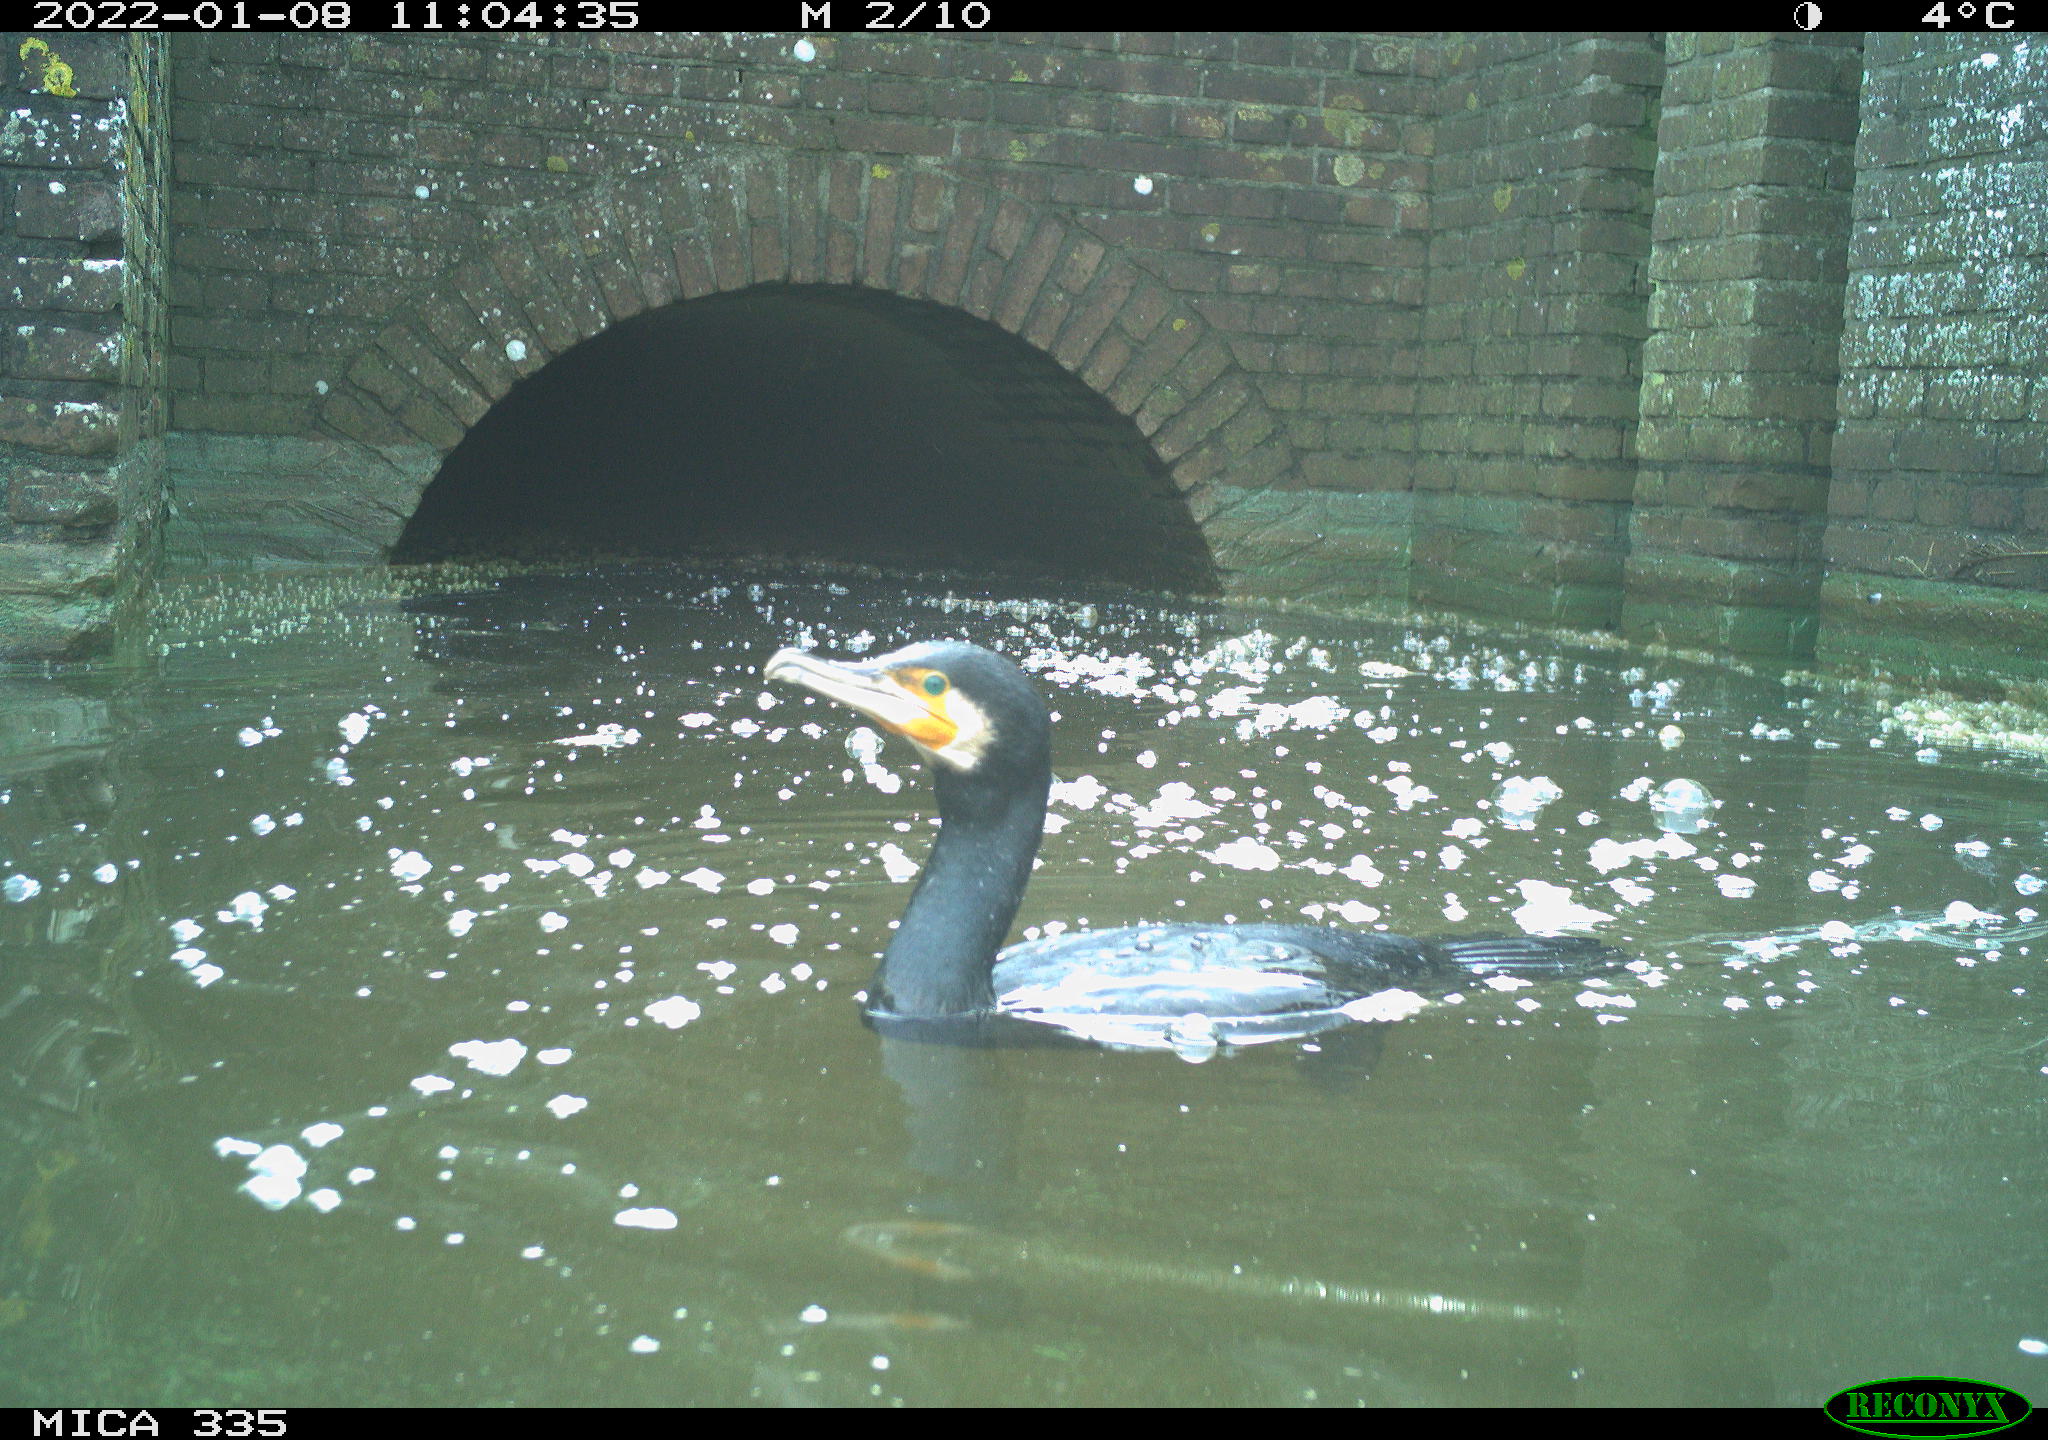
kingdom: Animalia
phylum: Chordata
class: Aves
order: Suliformes
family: Phalacrocoracidae
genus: Phalacrocorax
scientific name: Phalacrocorax carbo
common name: Great cormorant
